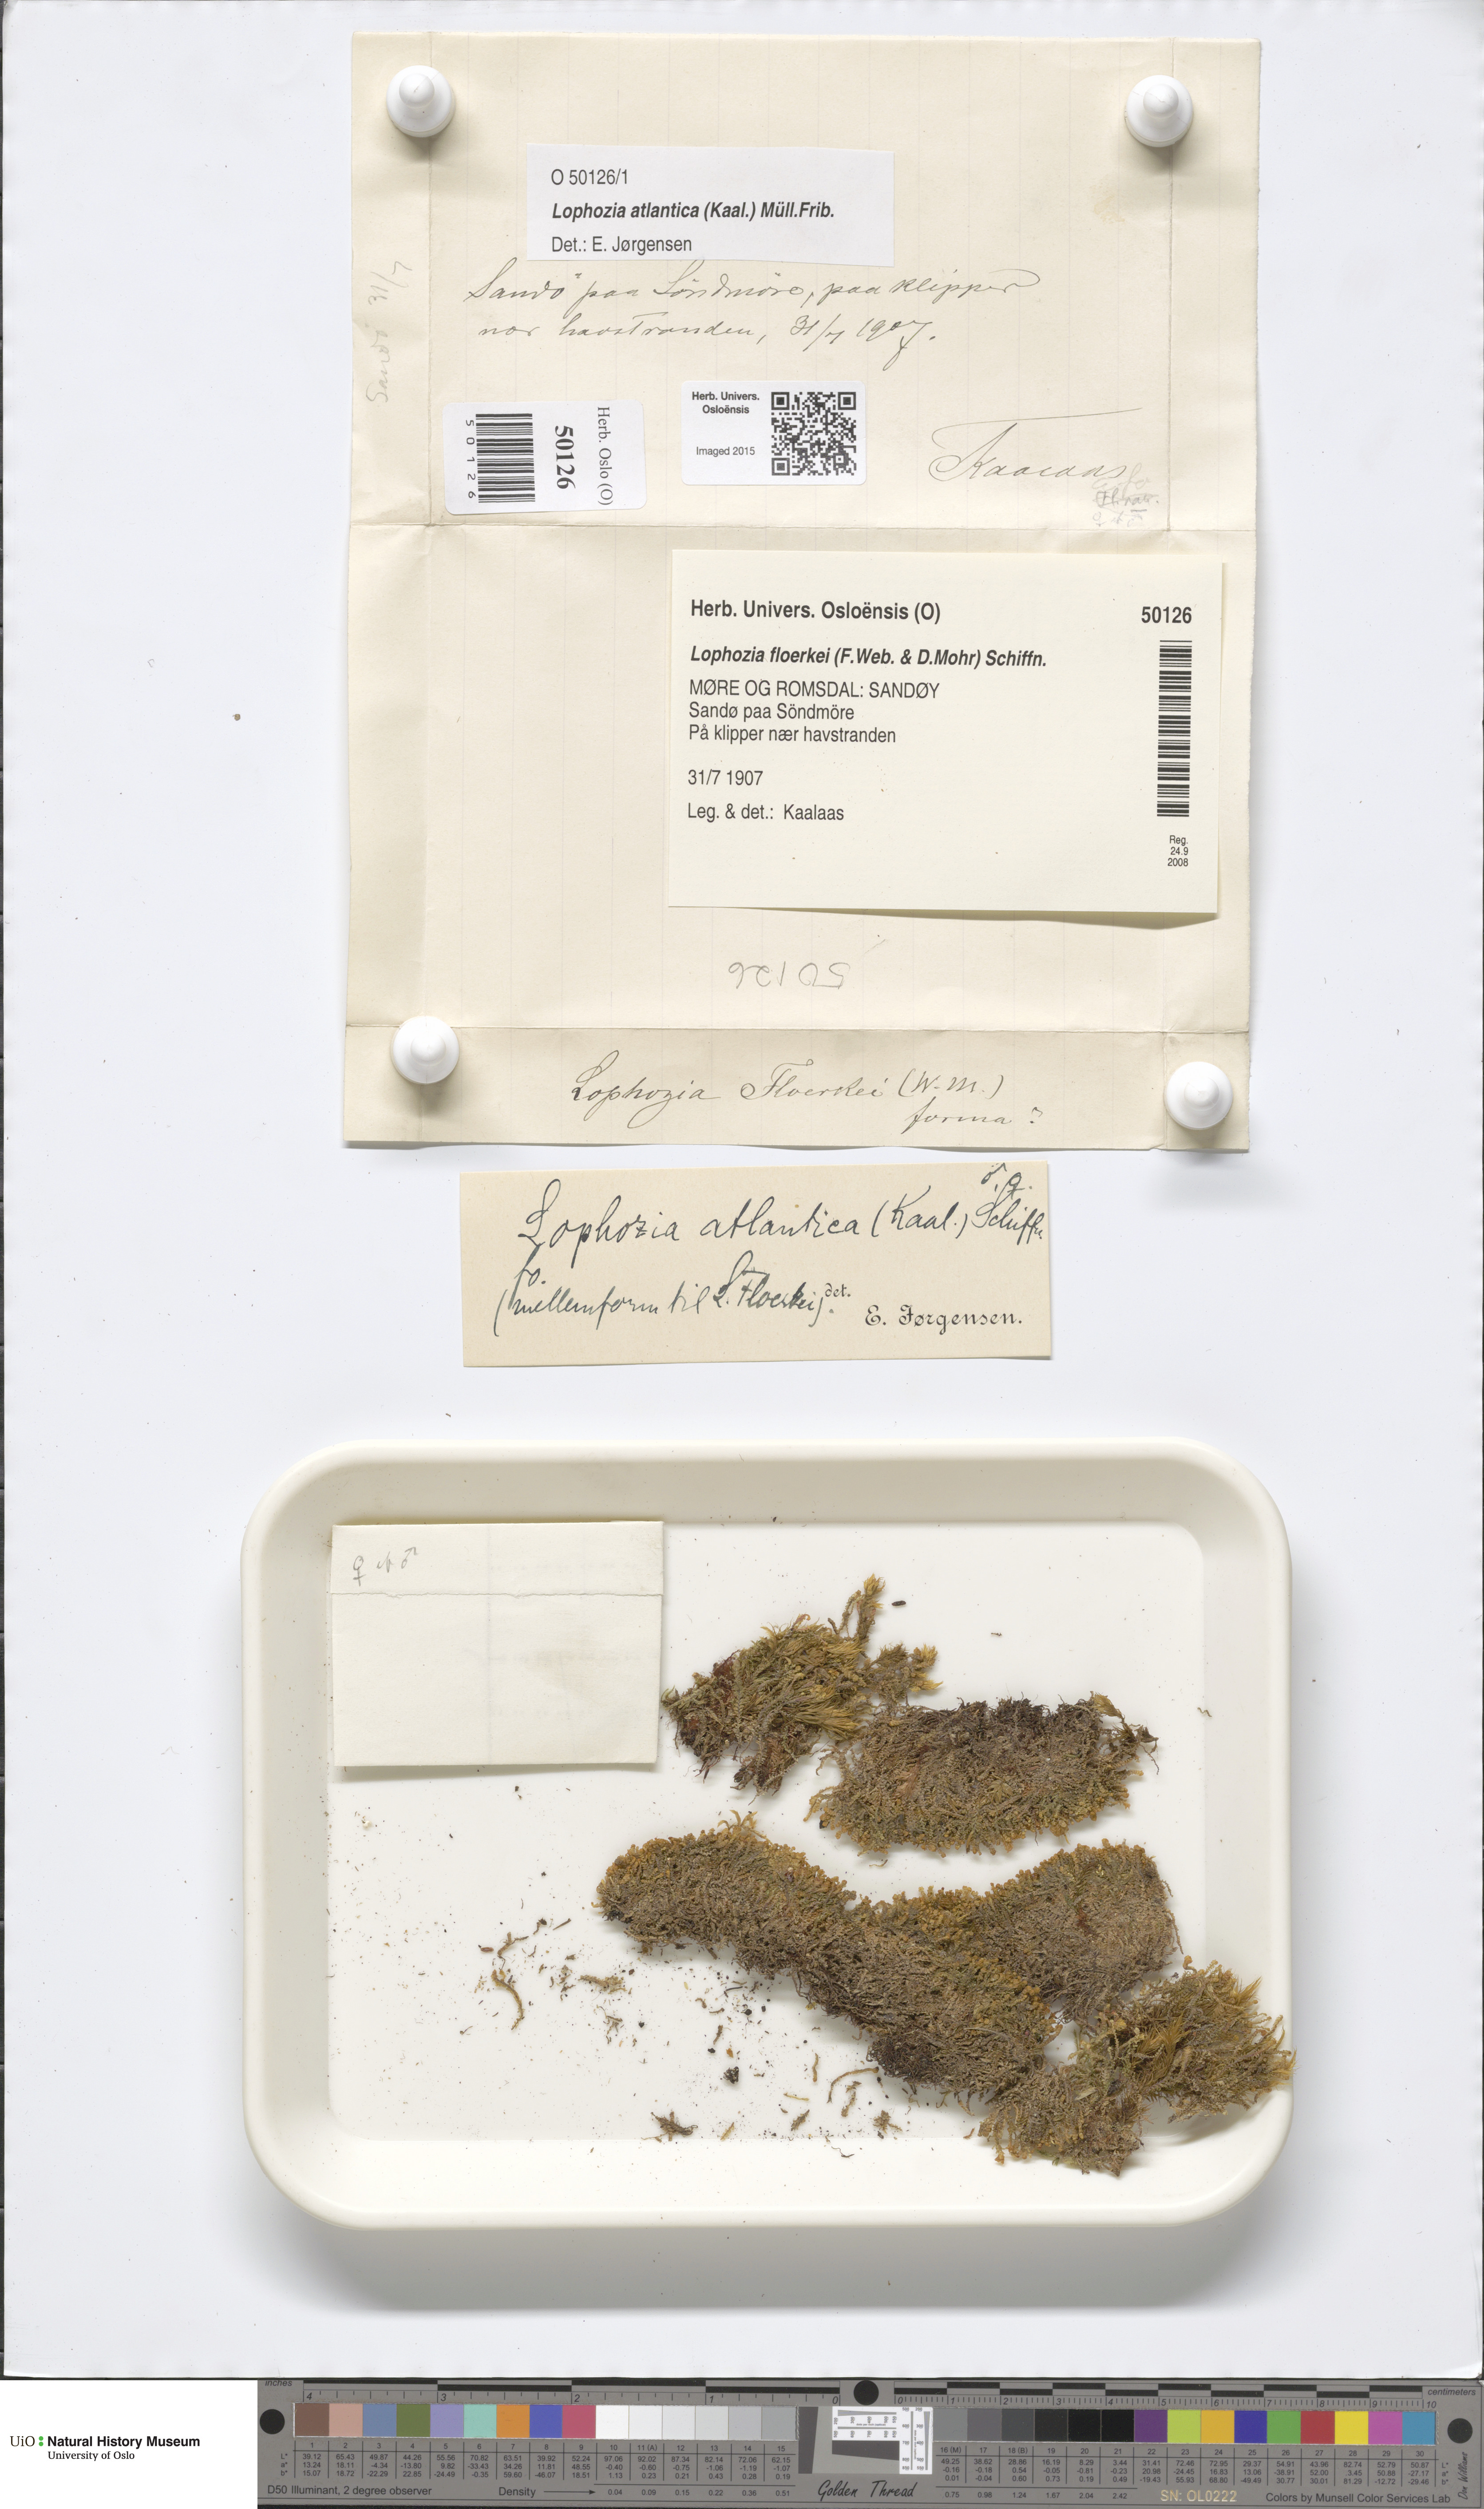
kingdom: Plantae
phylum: Marchantiophyta
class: Jungermanniopsida
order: Jungermanniales
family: Anastrophyllaceae
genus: Orthocaulis
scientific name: Orthocaulis atlanticus
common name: Atlantic pawwort
